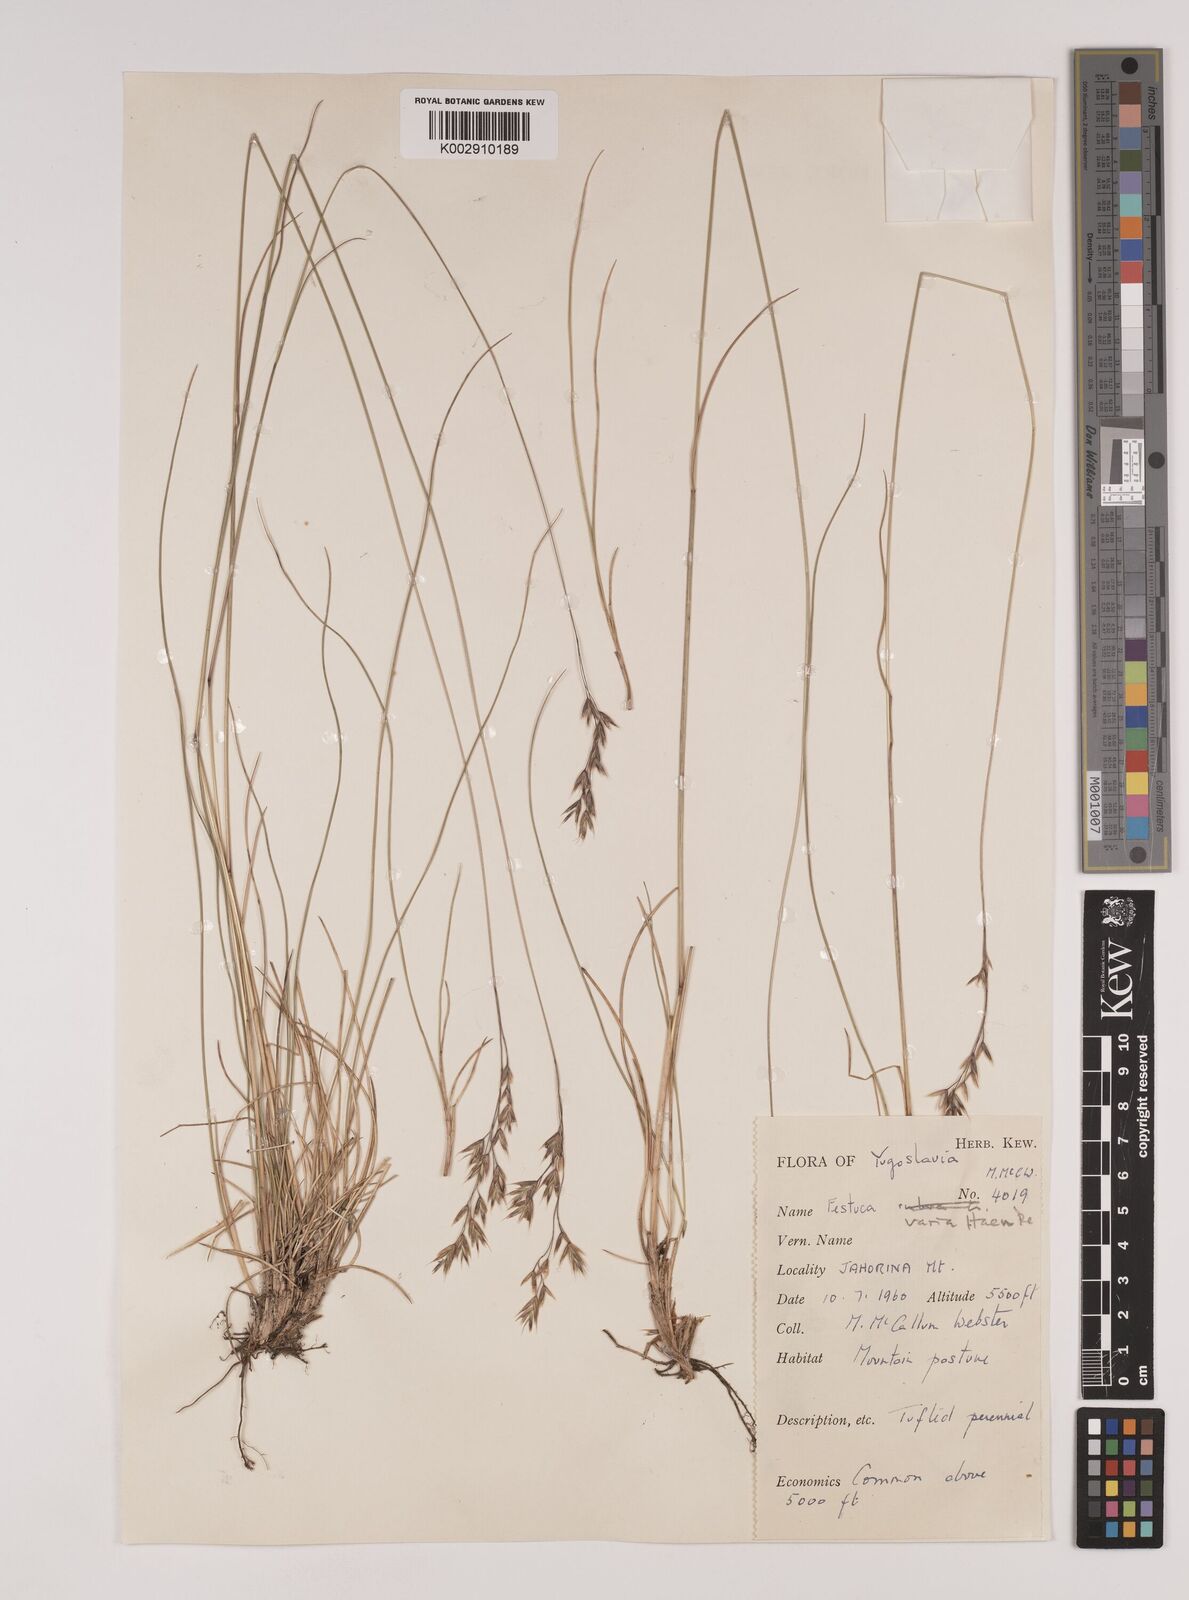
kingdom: Plantae
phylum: Tracheophyta
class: Liliopsida
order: Poales
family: Poaceae
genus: Festuca
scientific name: Festuca varia
